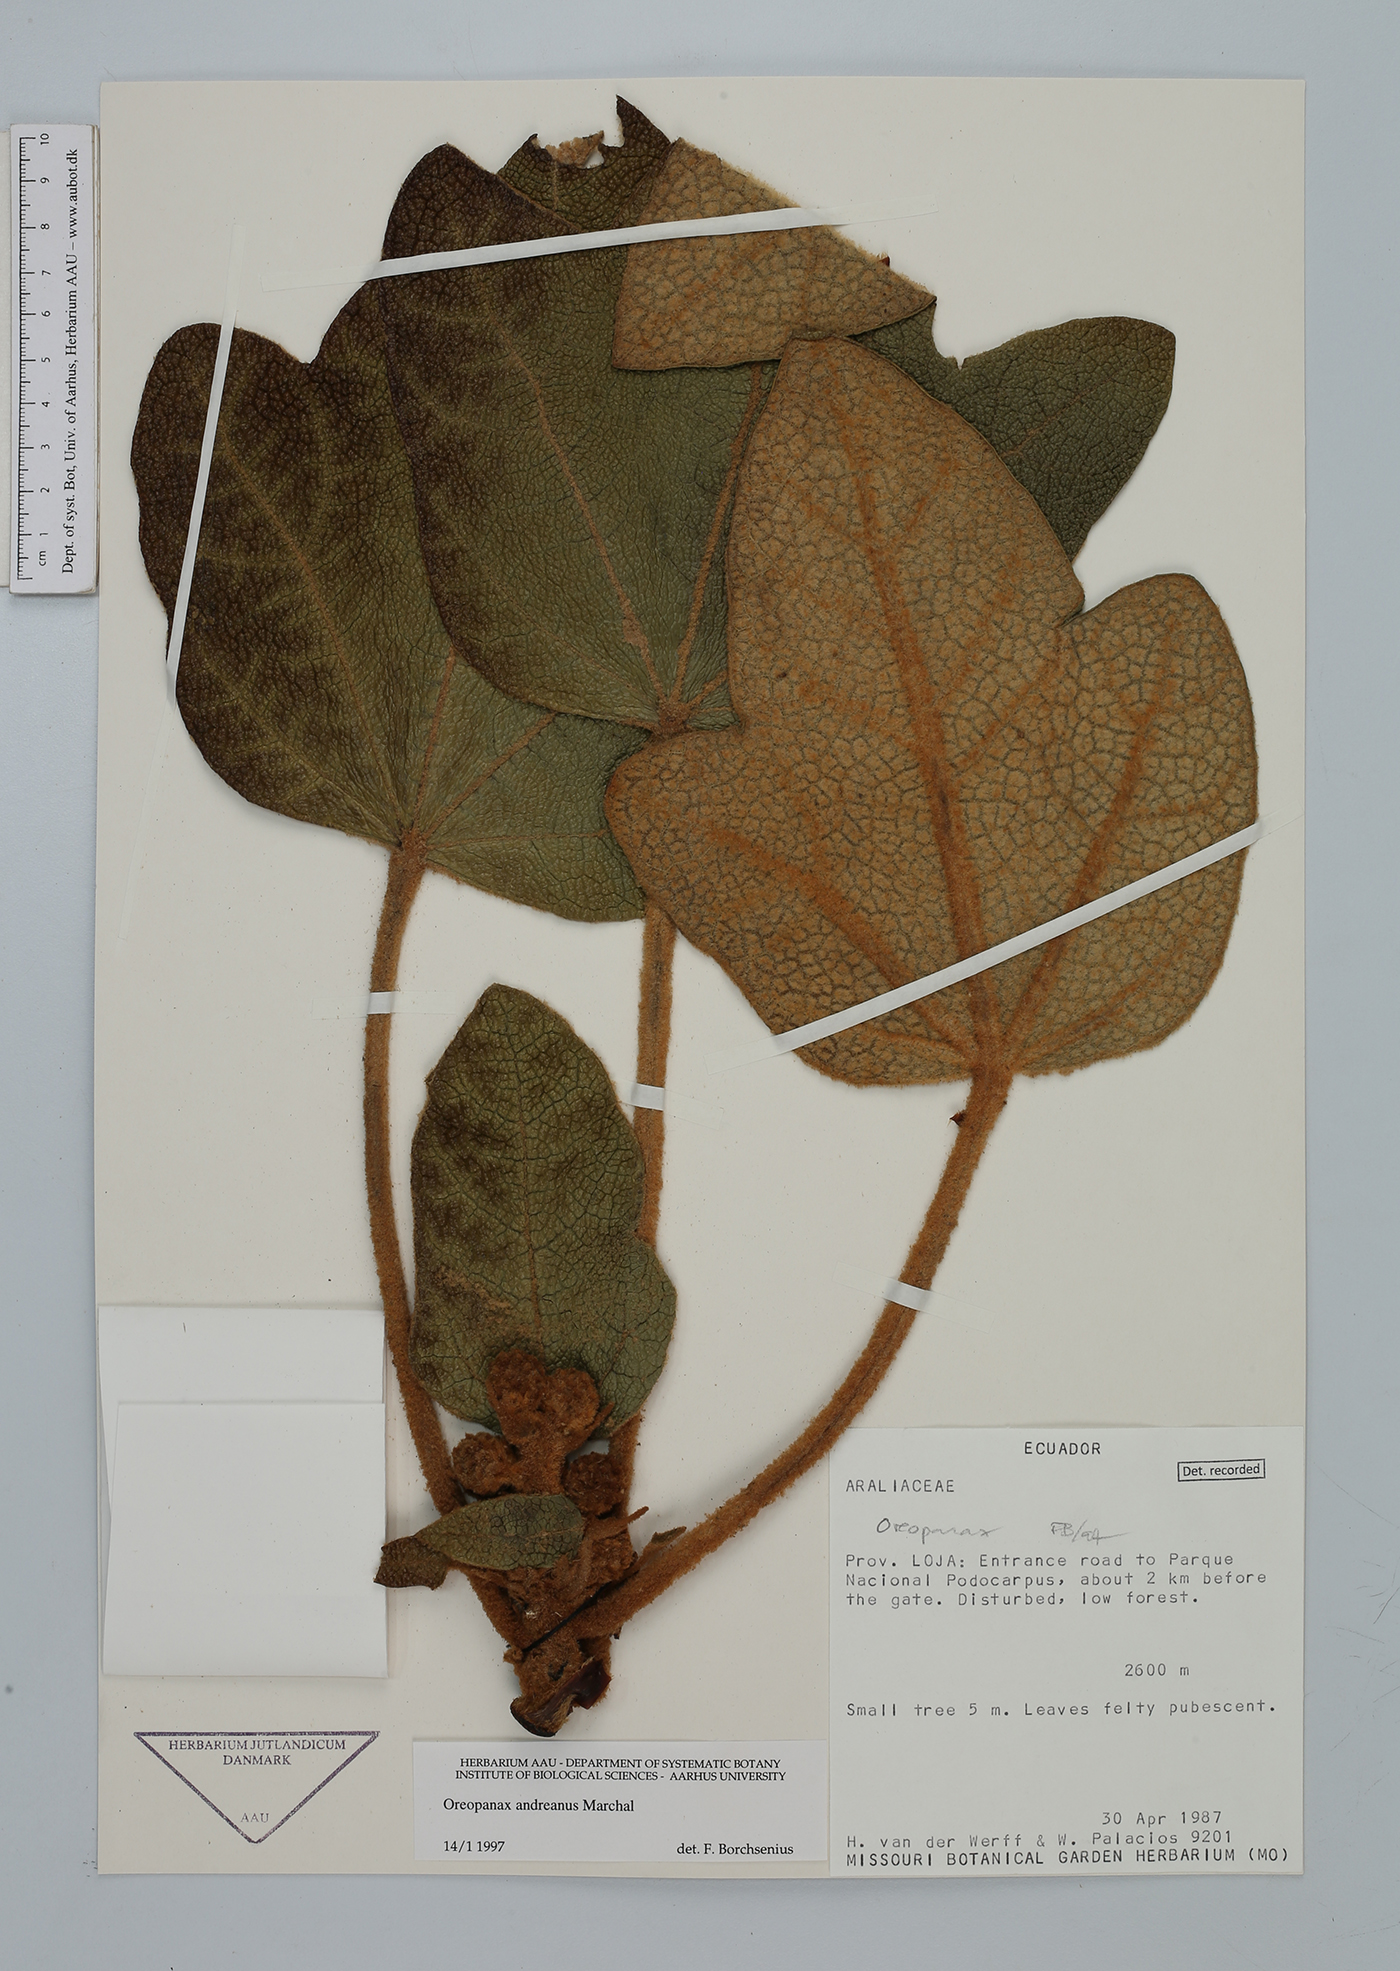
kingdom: Plantae
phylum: Tracheophyta
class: Magnoliopsida
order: Apiales
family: Araliaceae
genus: Oreopanax
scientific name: Oreopanax andreanus
